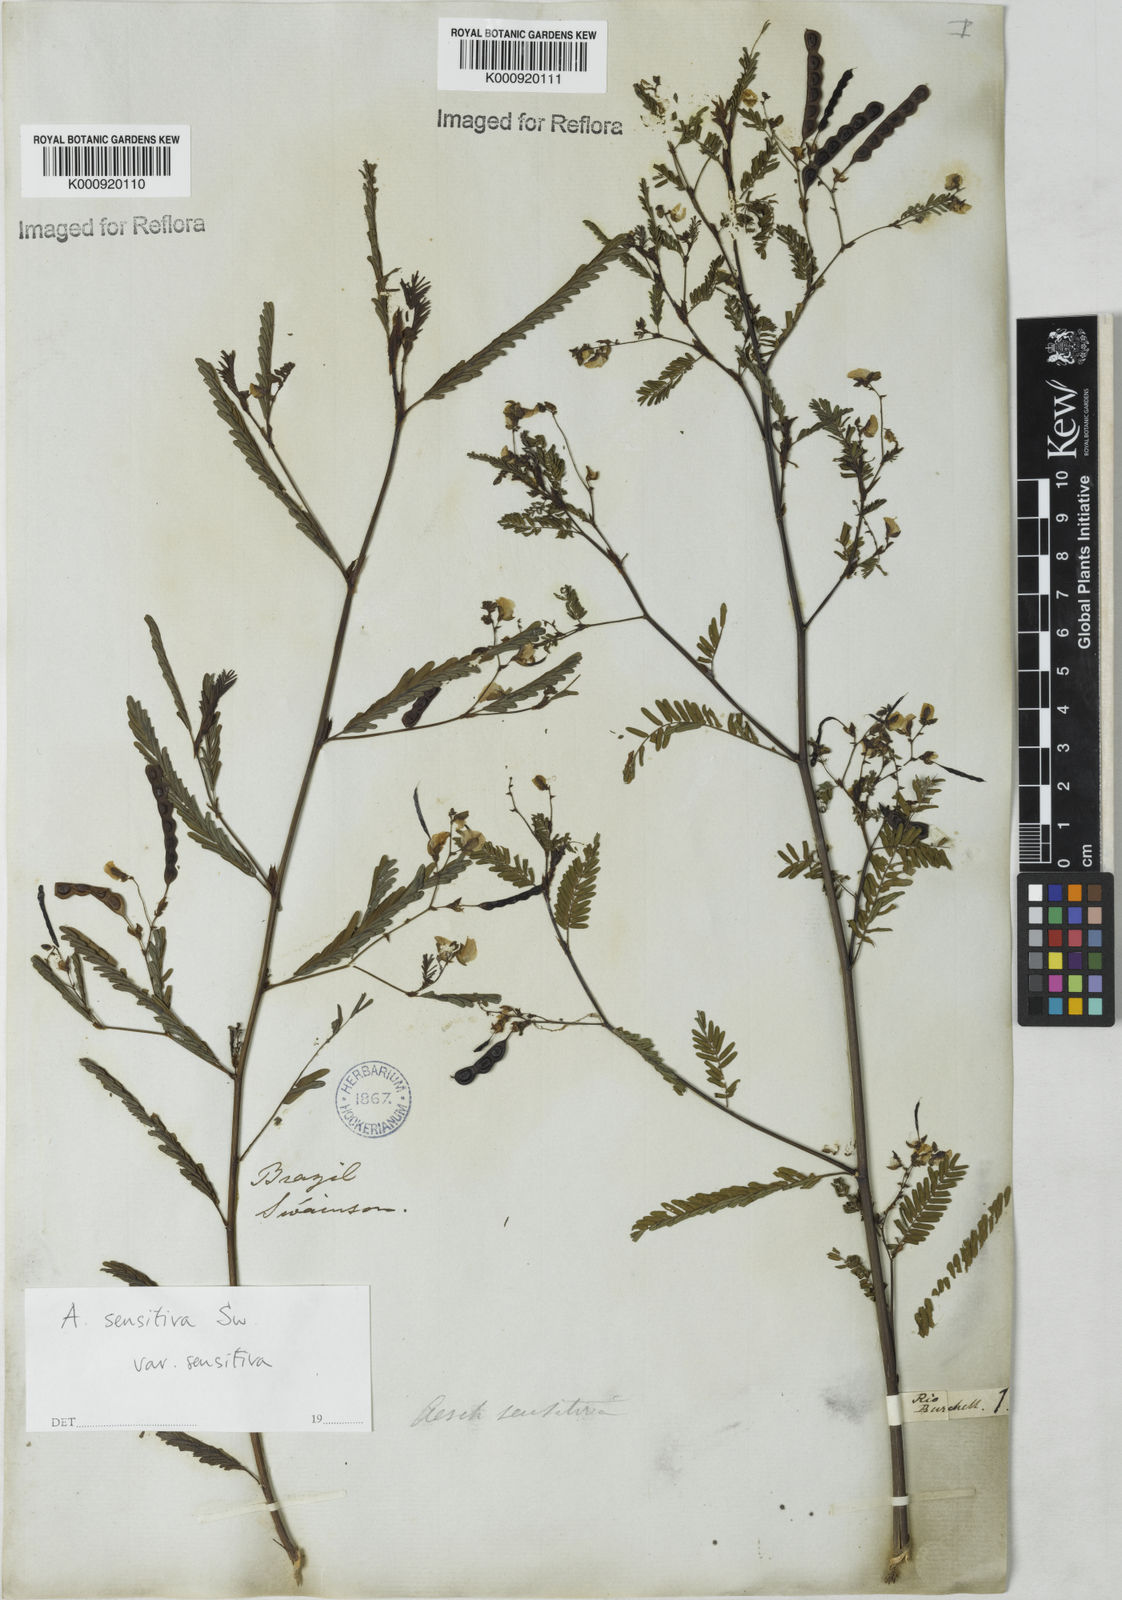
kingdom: Plantae
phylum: Tracheophyta
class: Magnoliopsida
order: Fabales
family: Fabaceae
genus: Aeschynomene
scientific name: Aeschynomene sensitiva
